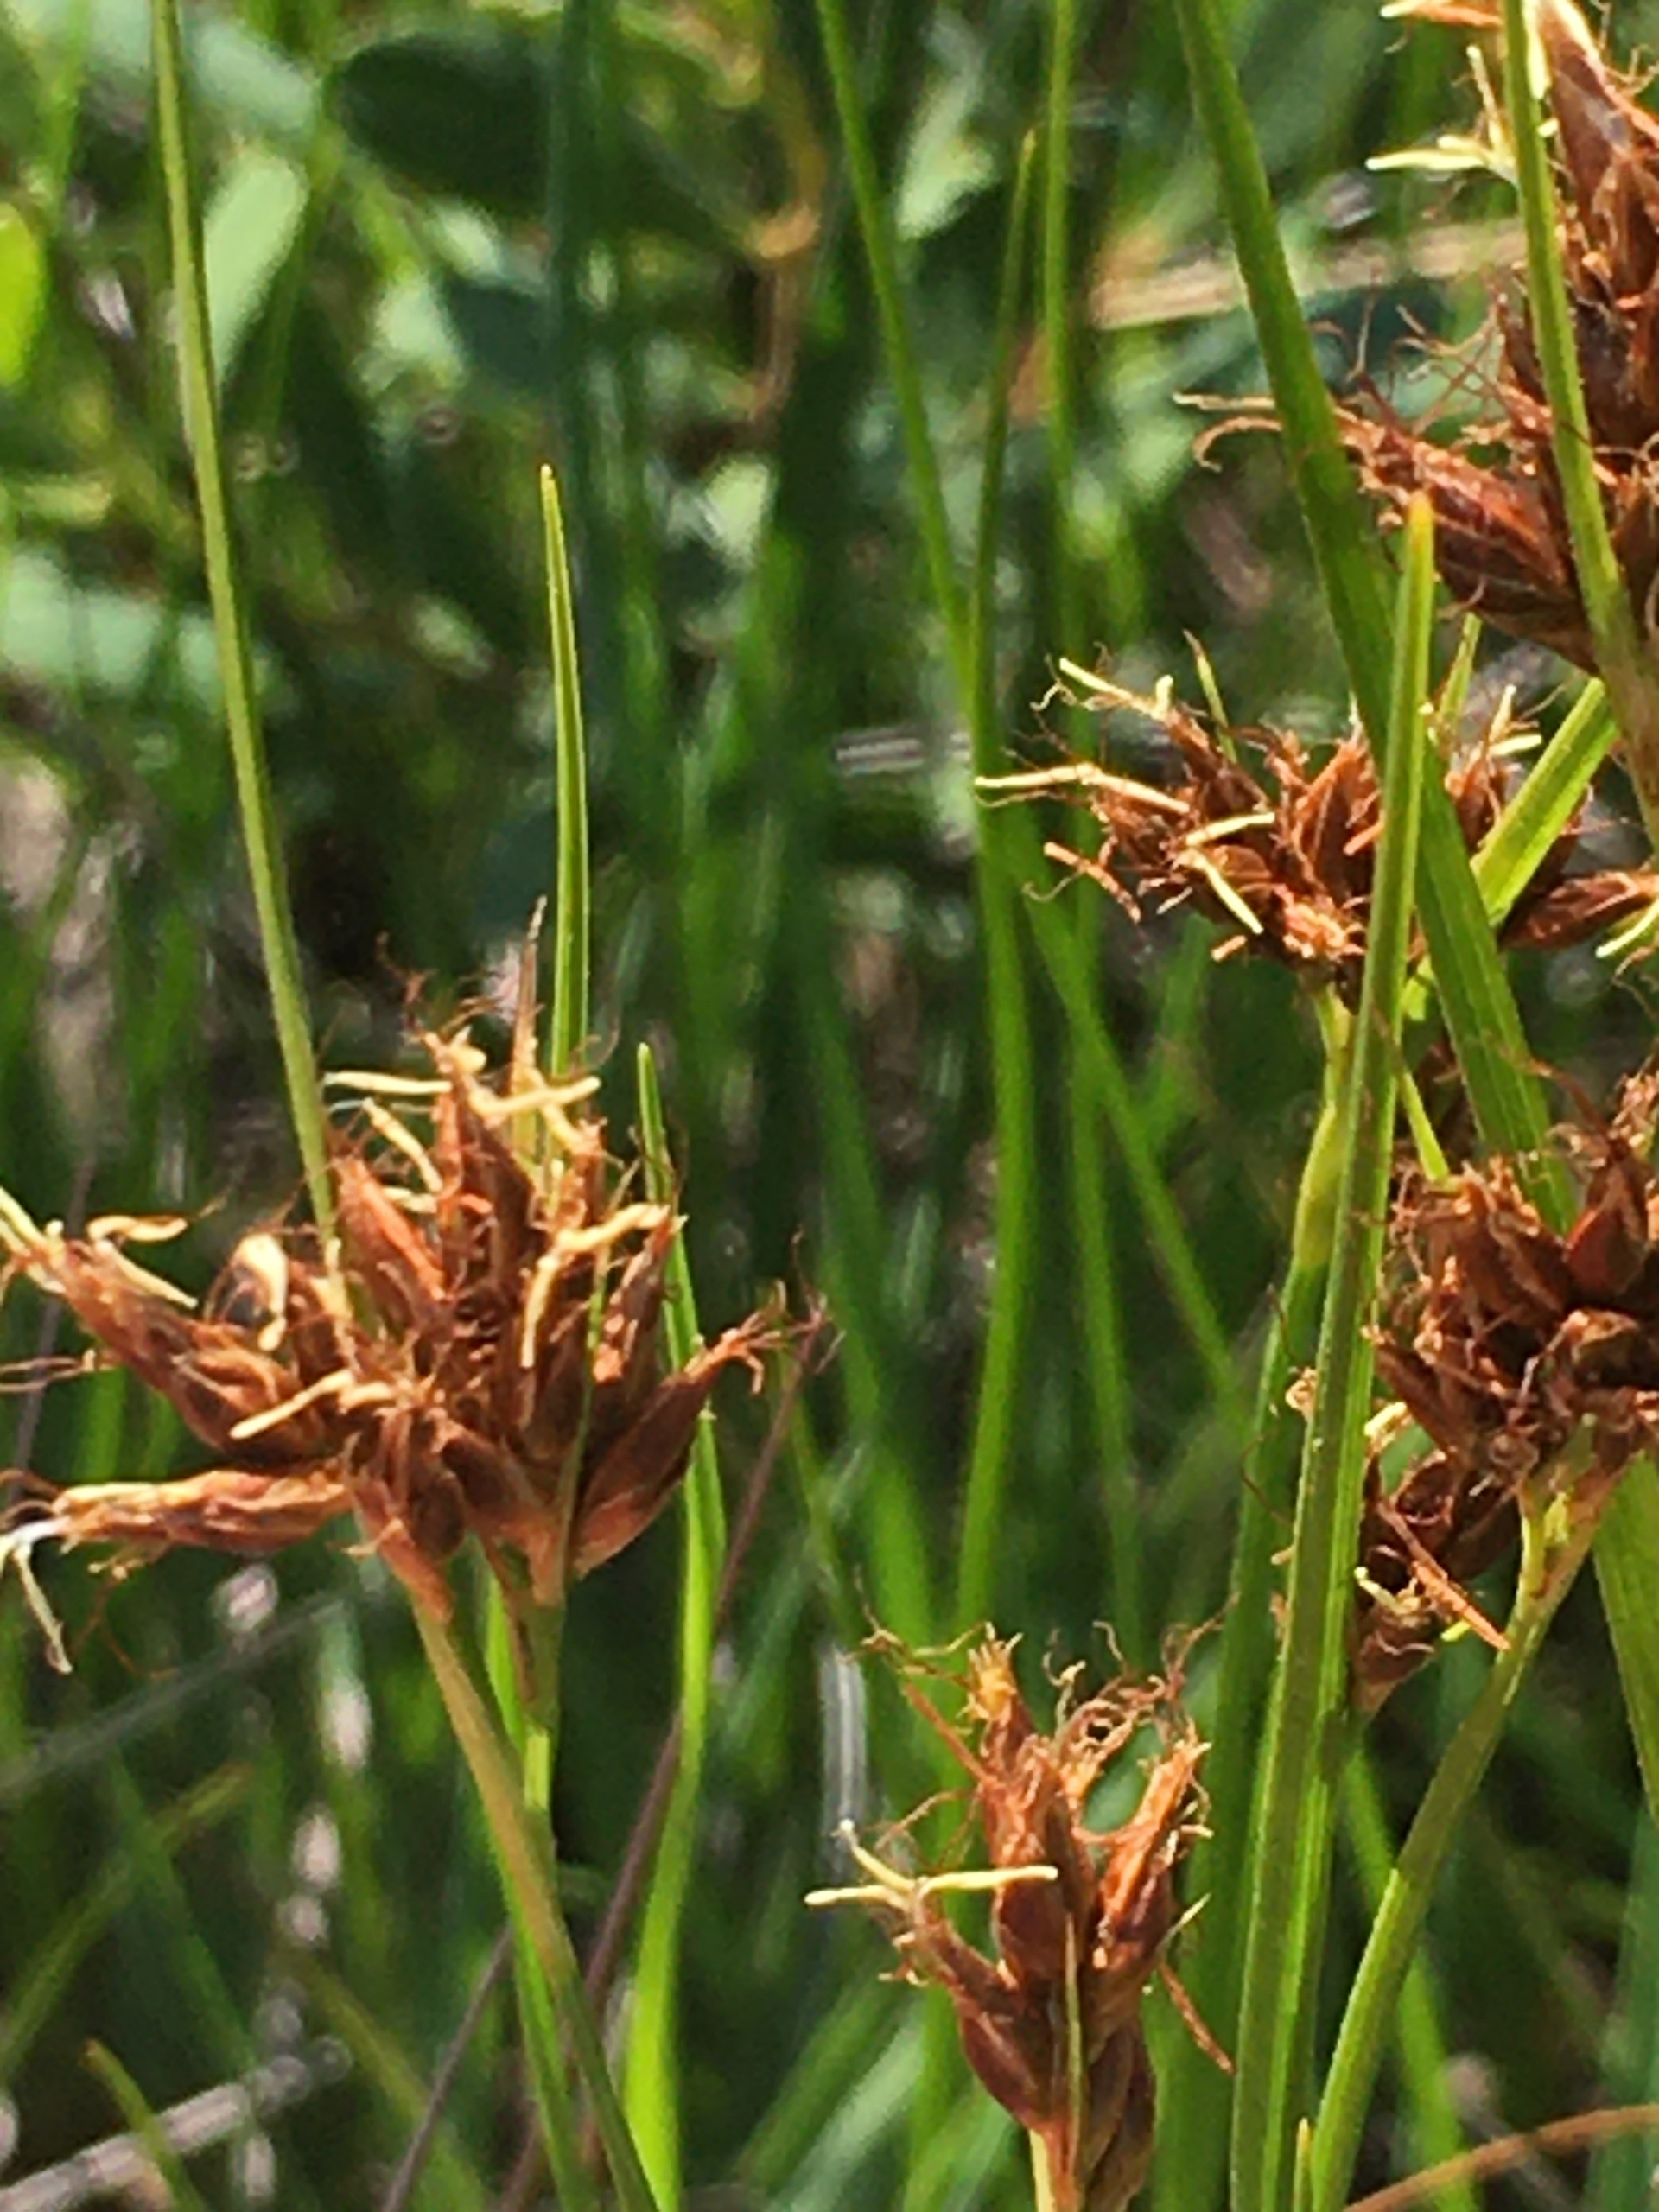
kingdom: Plantae
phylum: Tracheophyta
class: Liliopsida
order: Poales
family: Cyperaceae
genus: Rhynchospora
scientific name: Rhynchospora fusca
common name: Brun næbfrø
